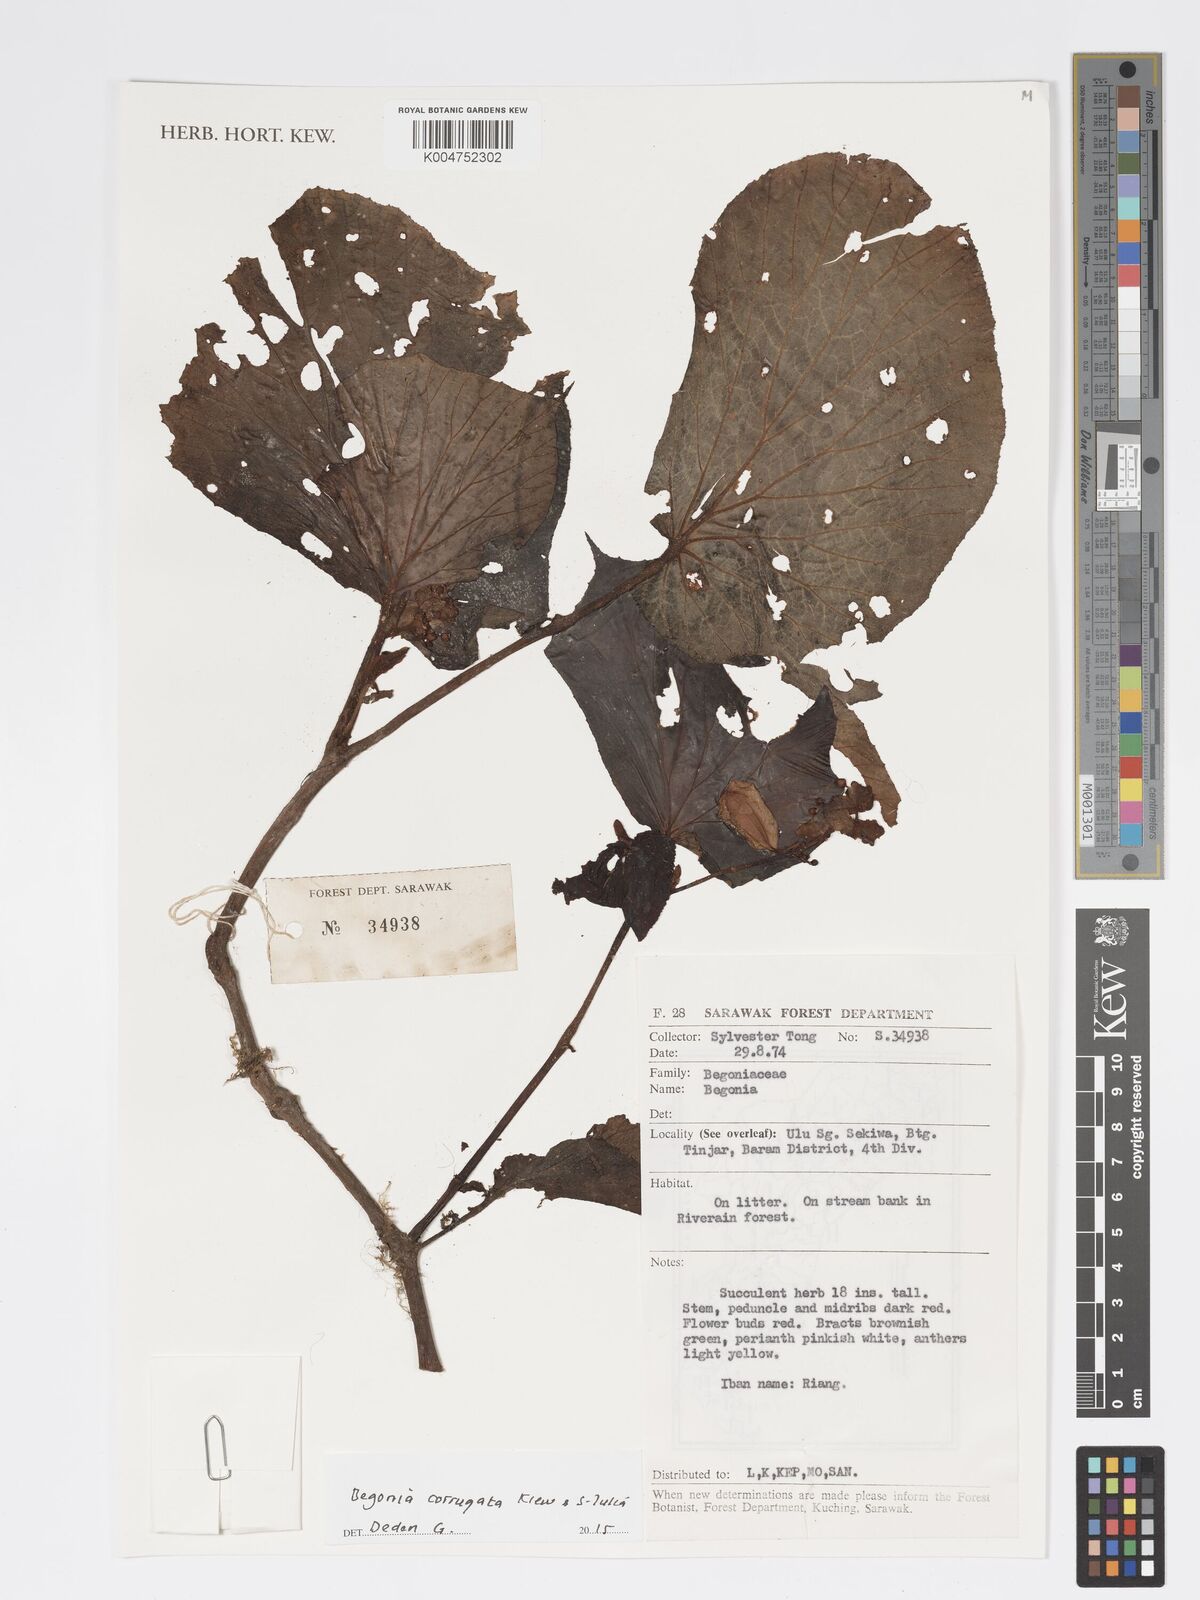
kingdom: Plantae
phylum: Tracheophyta
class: Magnoliopsida
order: Cucurbitales
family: Begoniaceae
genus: Begonia
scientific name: Begonia corrugata
